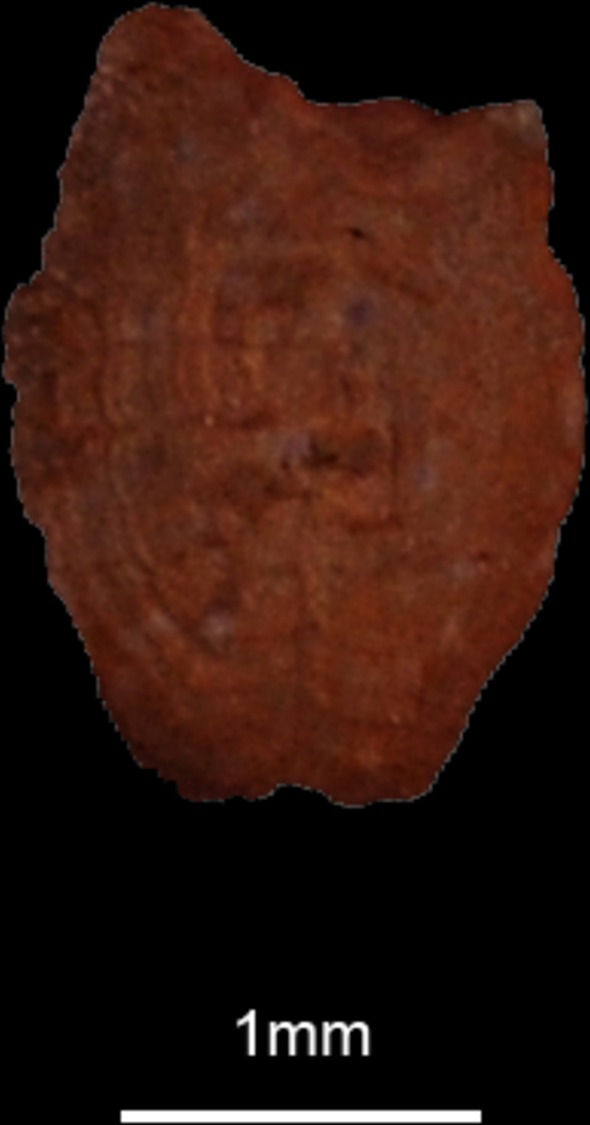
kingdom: Animalia
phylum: Chordata
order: Clupeiformes
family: Clupeidae
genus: Clupea
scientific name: Clupea harengus
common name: Herring
